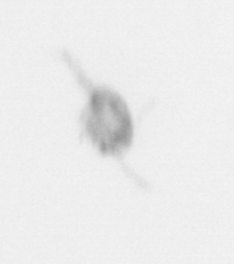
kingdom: Animalia
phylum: Arthropoda
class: Copepoda
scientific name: Copepoda
